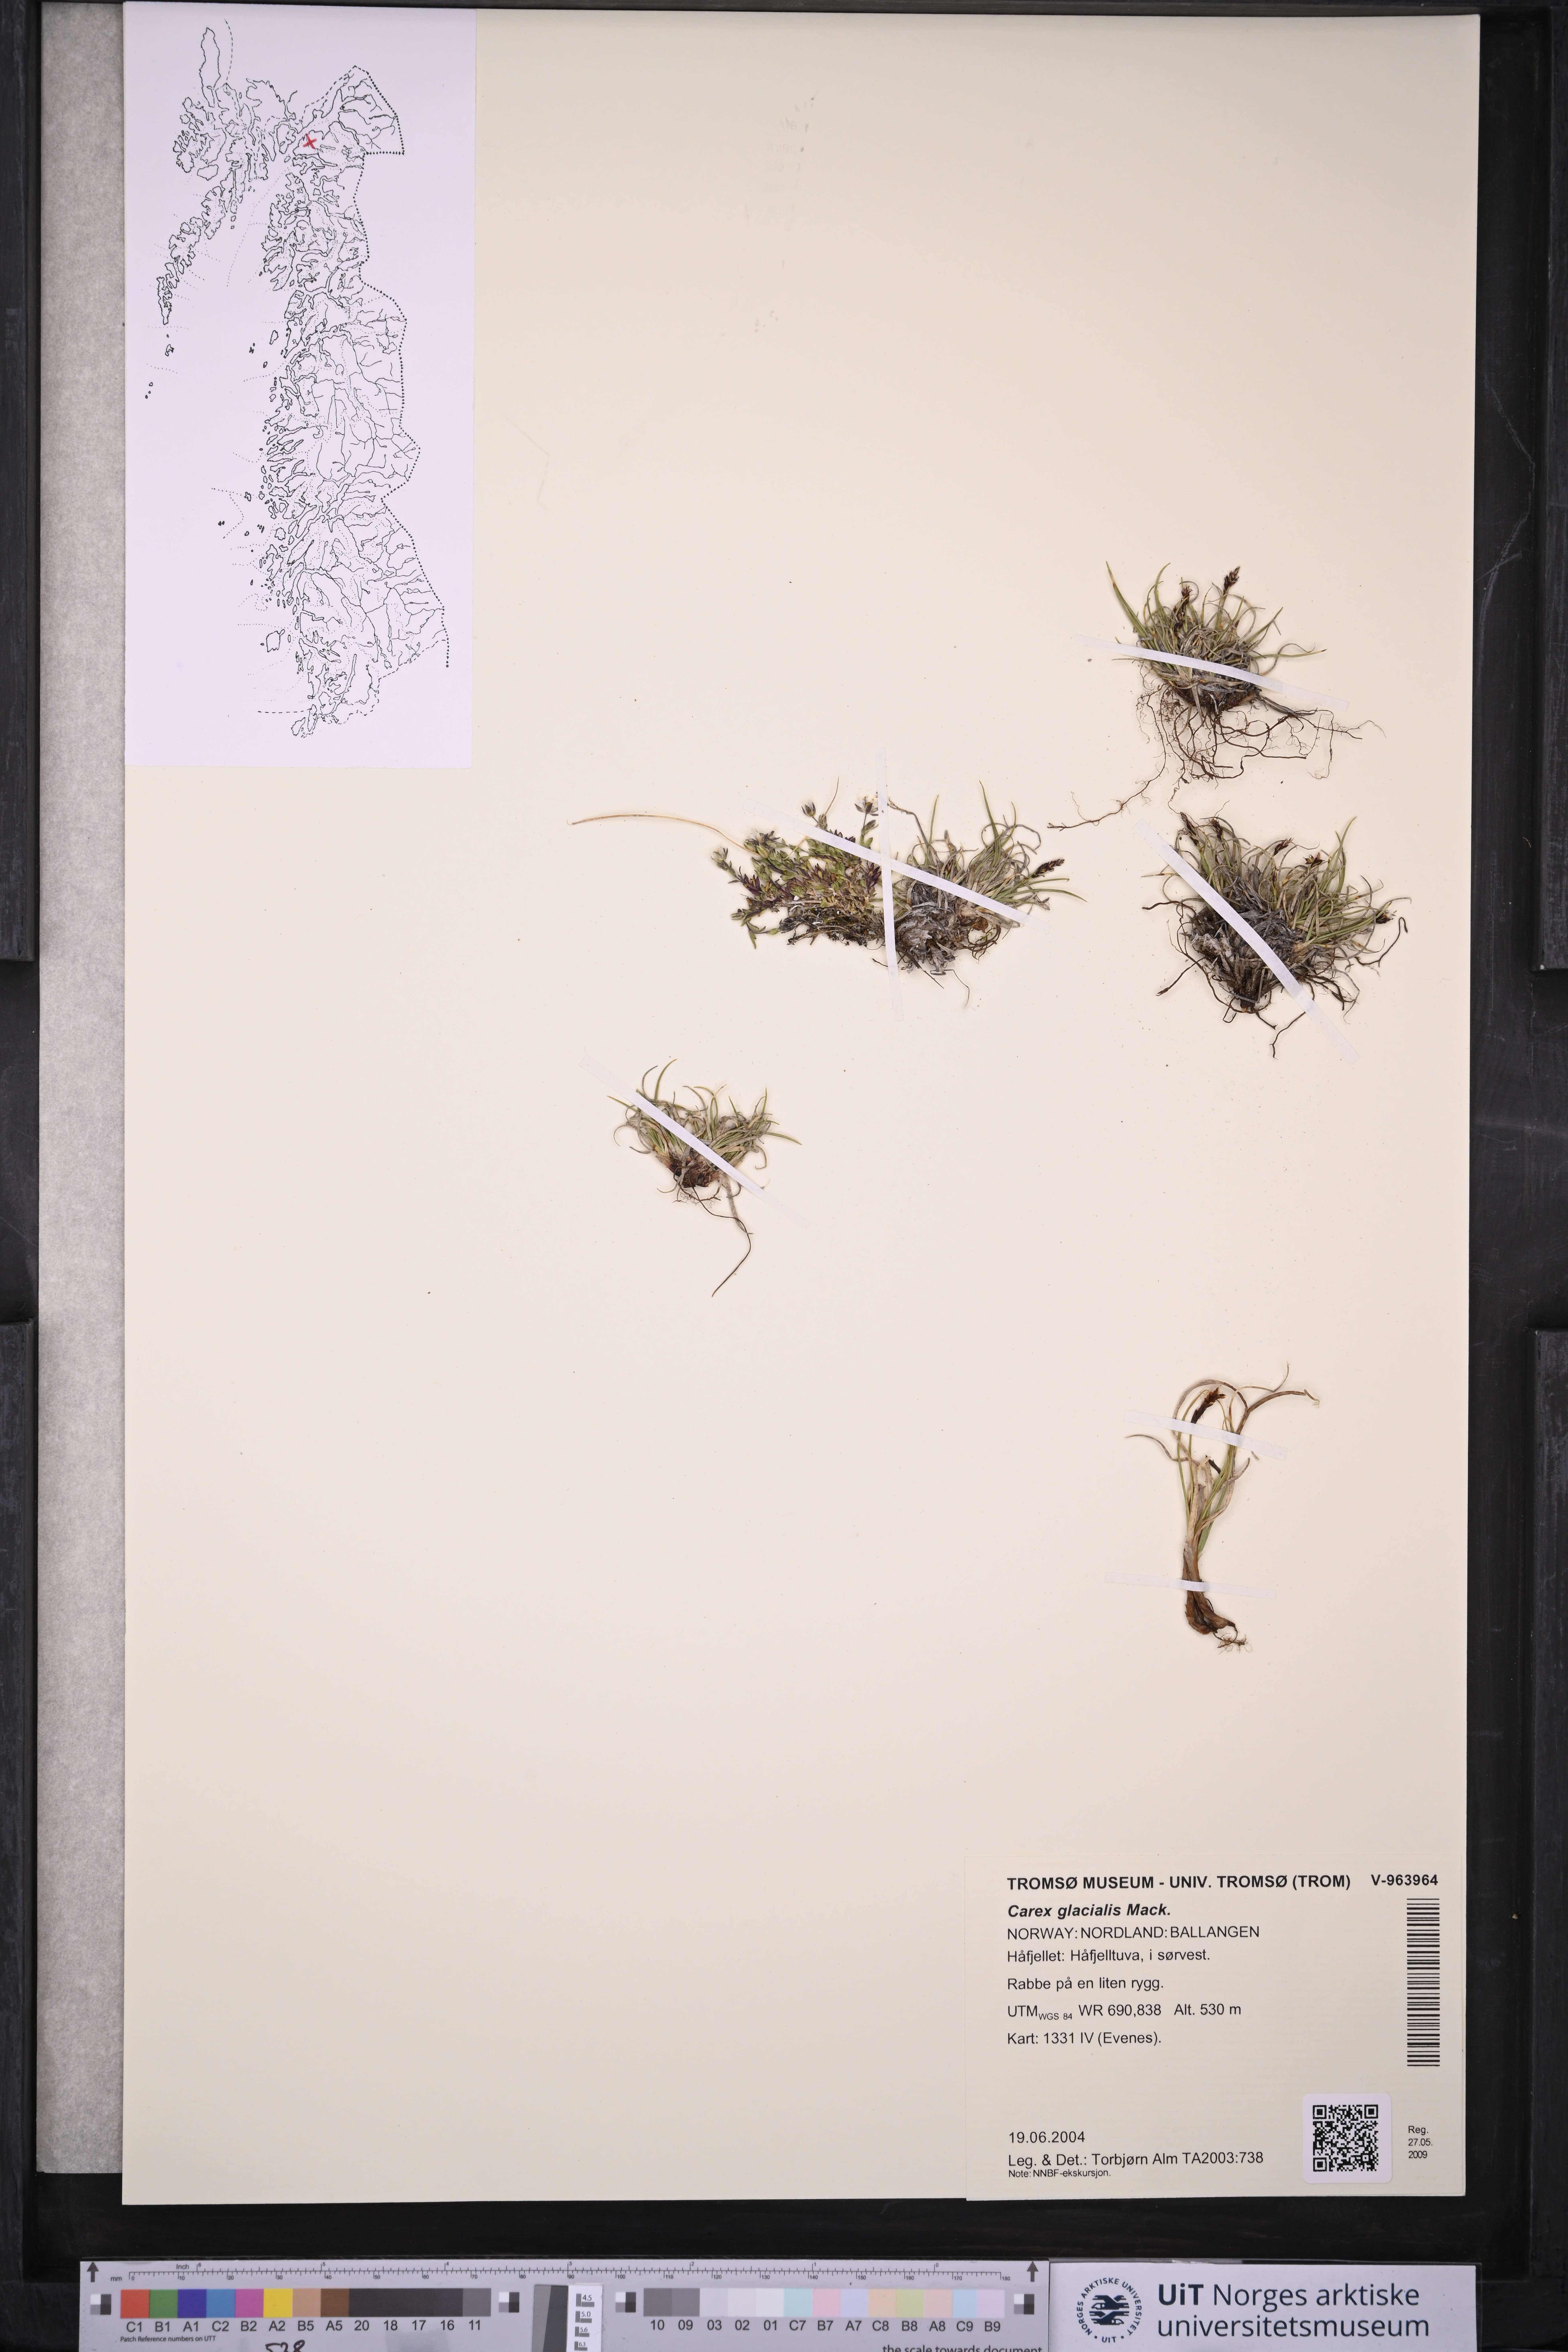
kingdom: Plantae
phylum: Tracheophyta
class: Liliopsida
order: Poales
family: Cyperaceae
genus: Carex
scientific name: Carex glacialis
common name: Newfoundland sedge
